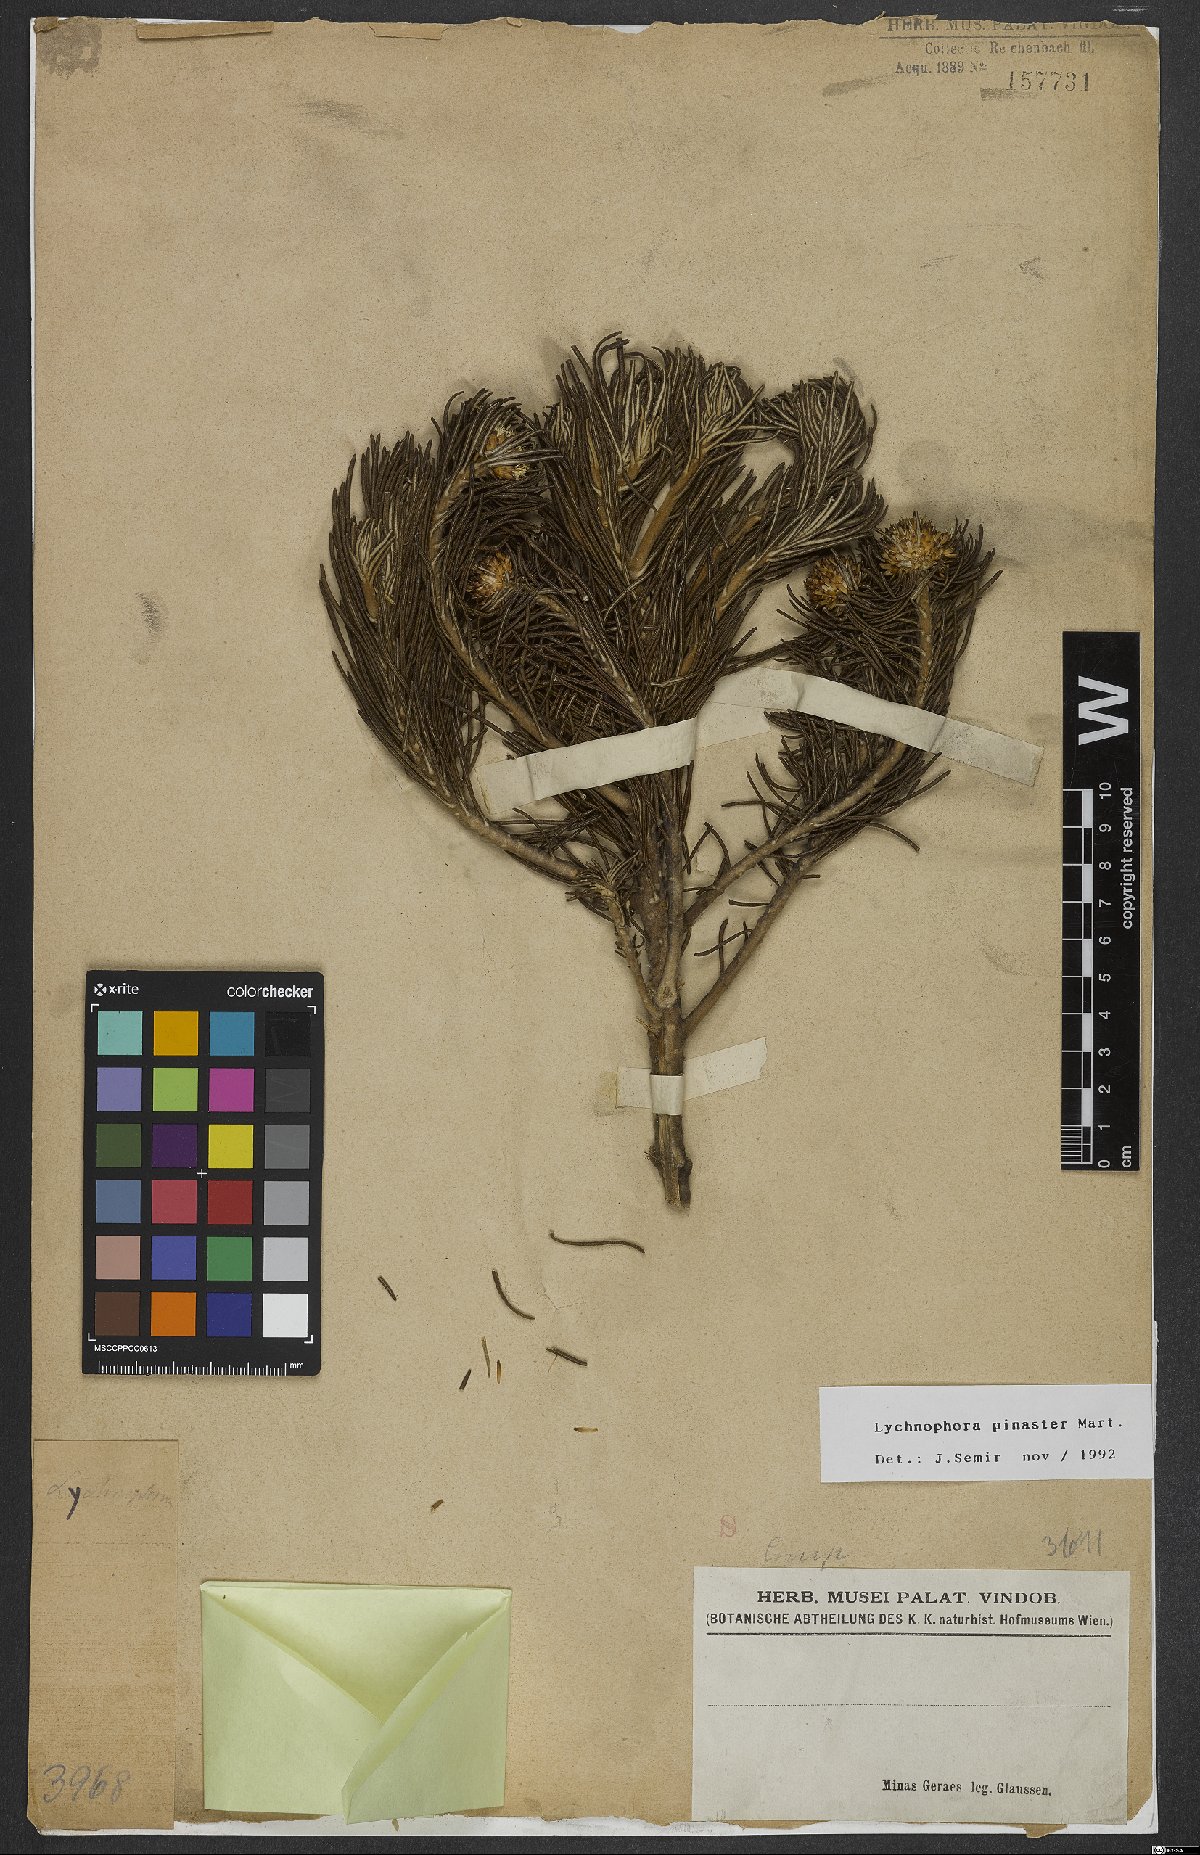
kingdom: Plantae
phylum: Tracheophyta
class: Magnoliopsida
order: Asterales
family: Asteraceae
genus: Lychnophora
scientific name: Lychnophora pinaster
